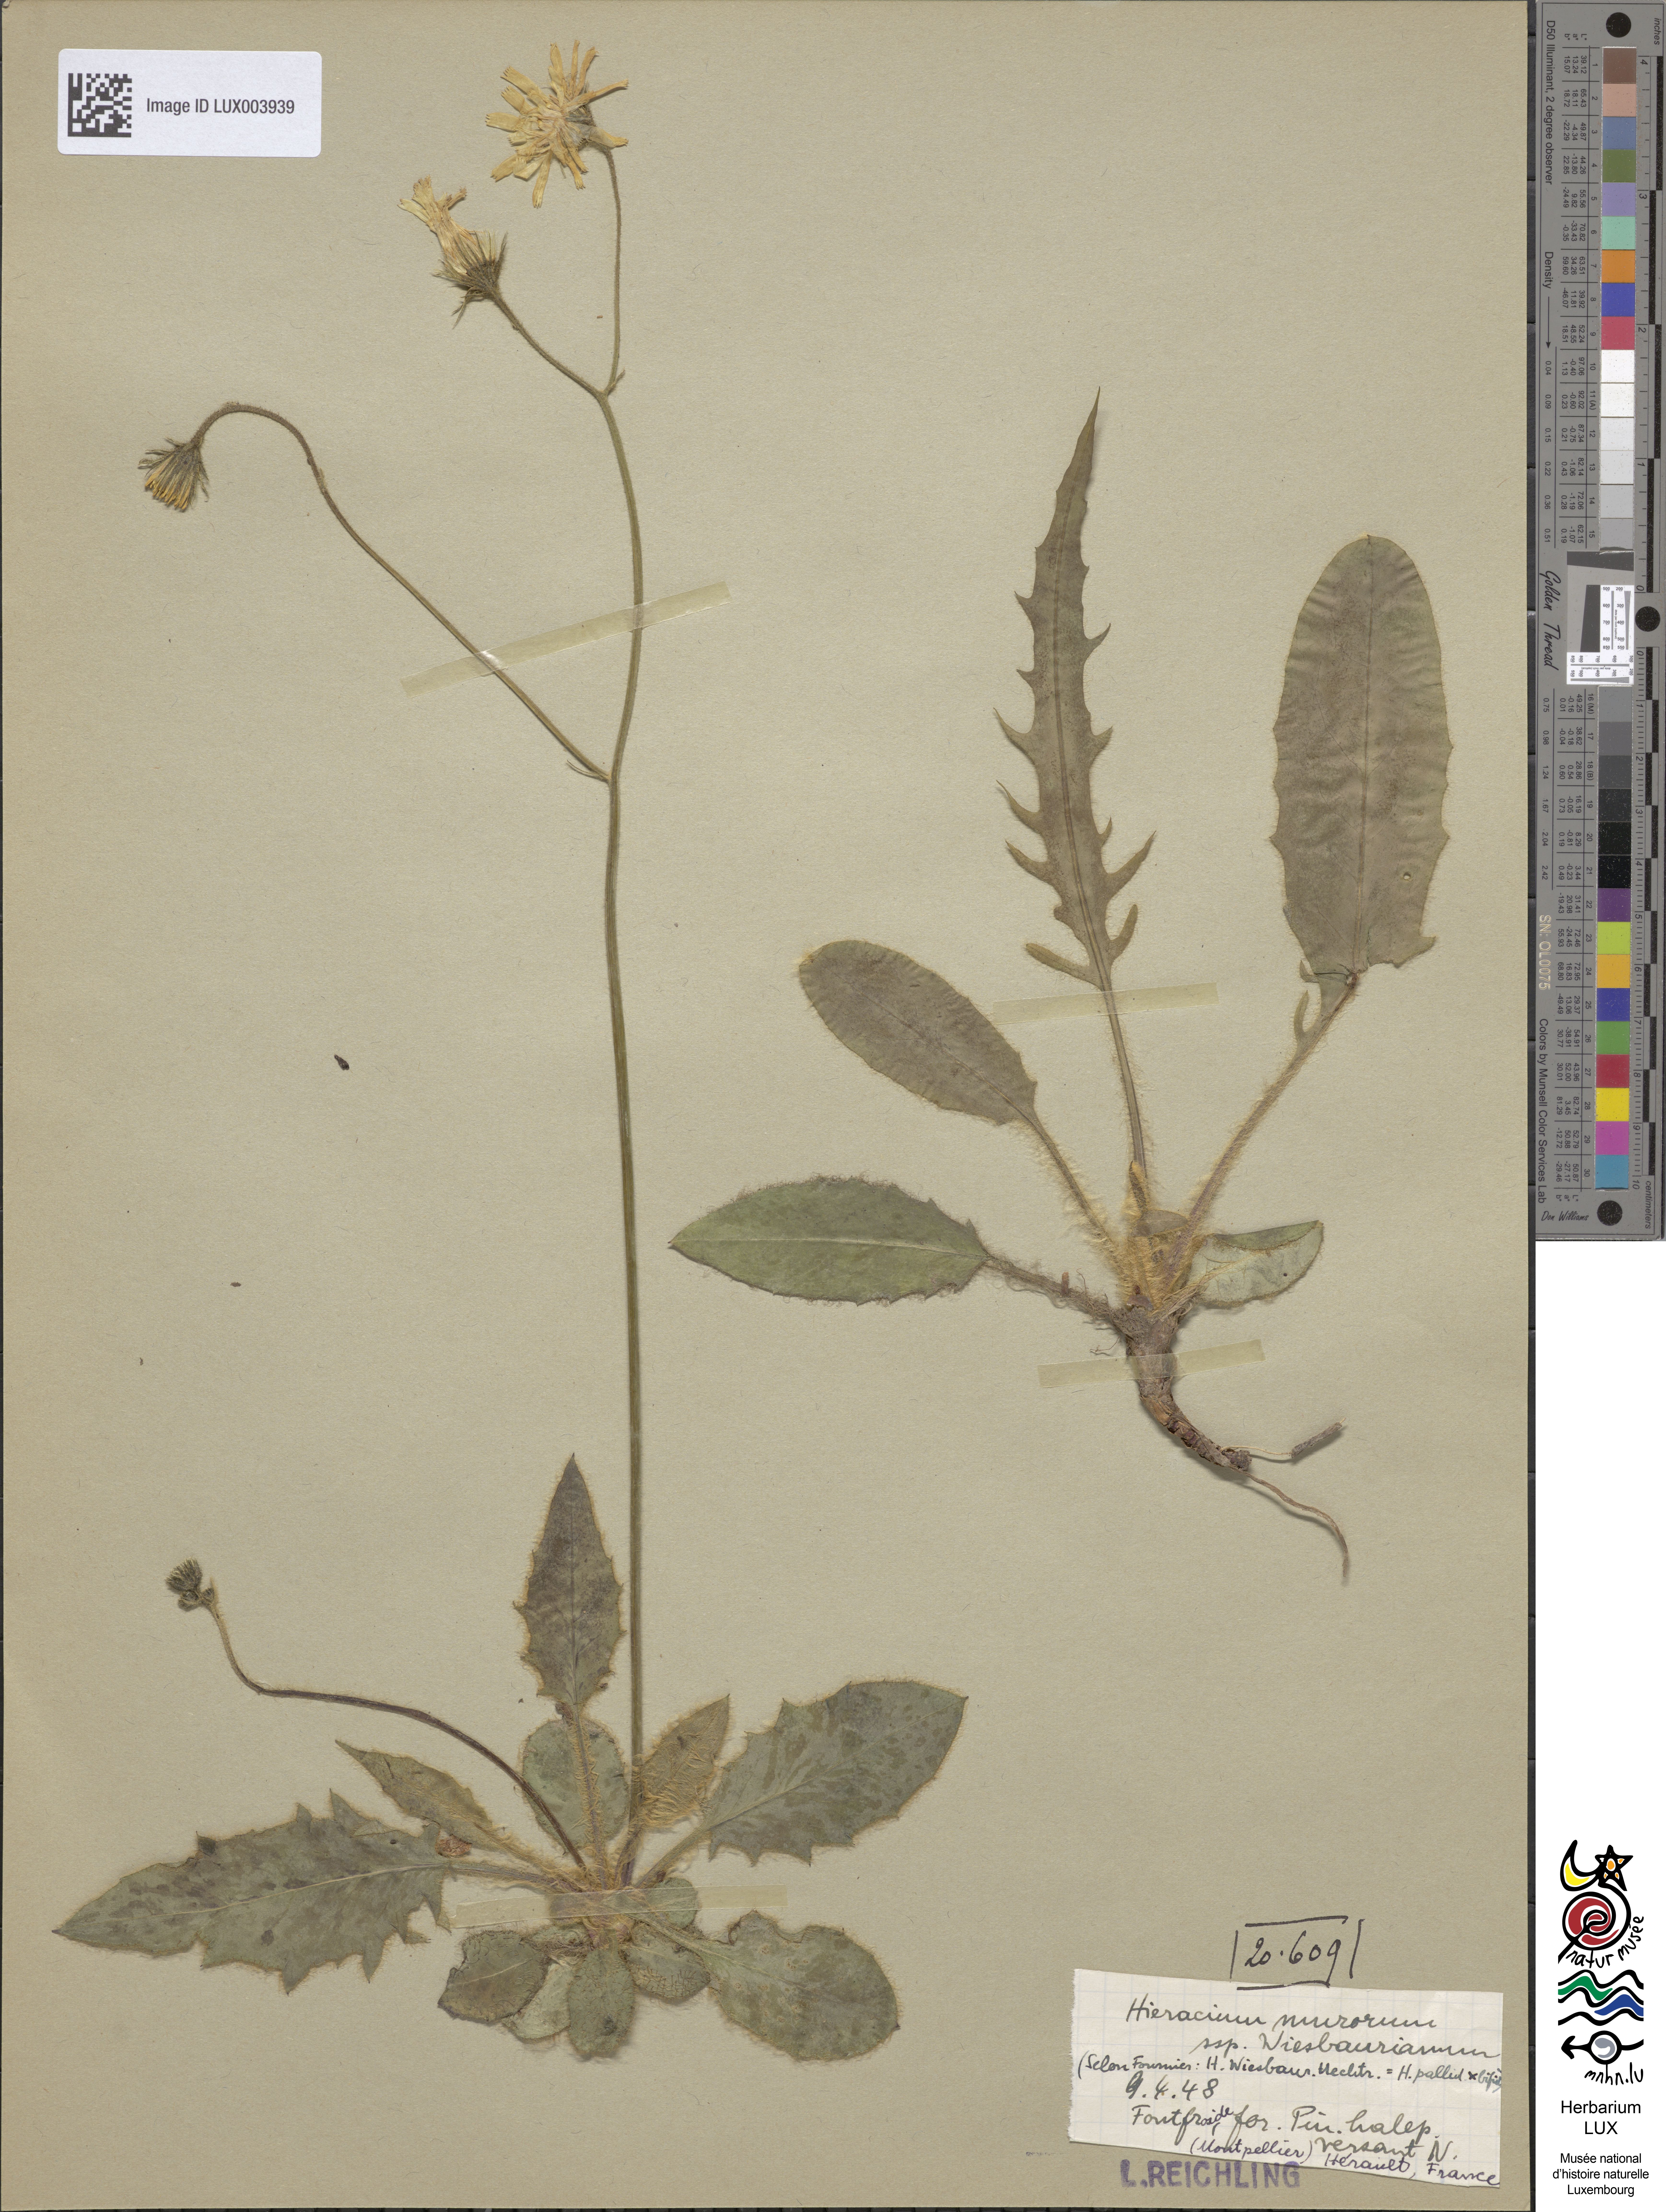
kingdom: Plantae
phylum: Tracheophyta
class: Magnoliopsida
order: Asterales
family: Asteraceae
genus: Hieracium
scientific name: Hieracium murorum
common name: Wall hawkweed
